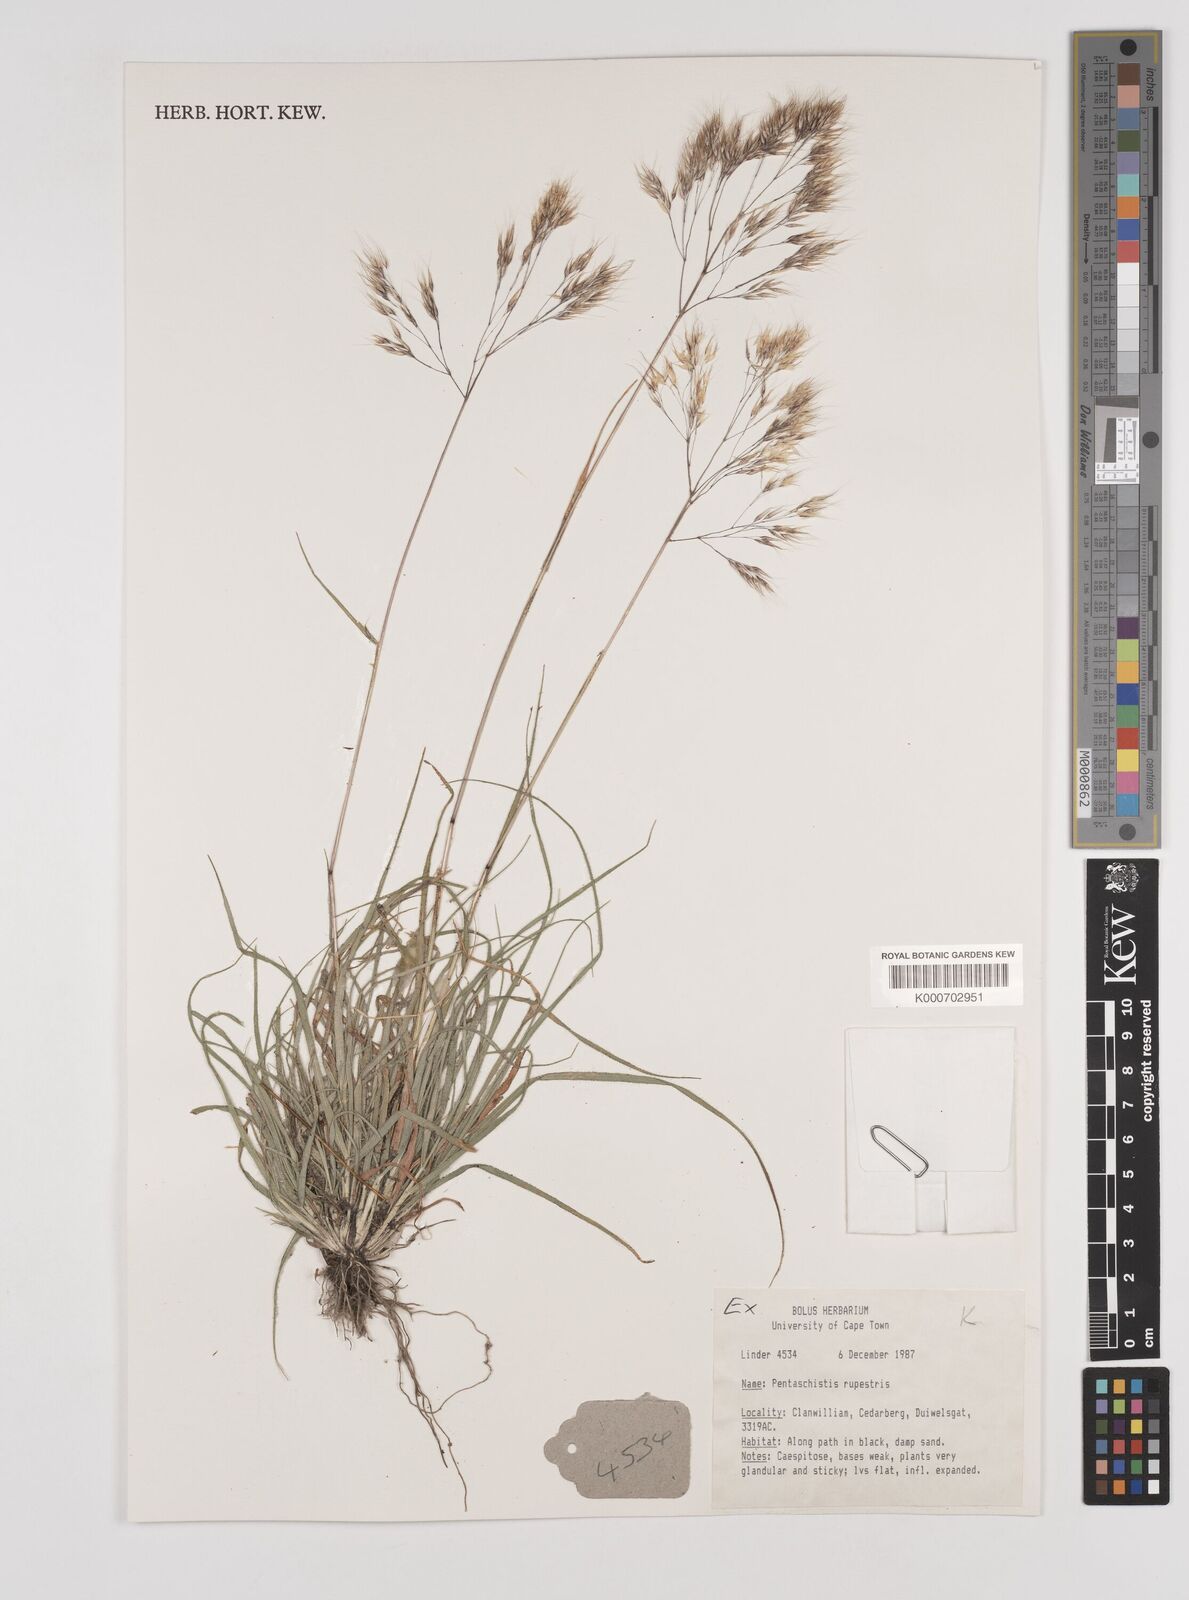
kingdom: Plantae
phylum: Tracheophyta
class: Liliopsida
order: Poales
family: Poaceae
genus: Pentameris
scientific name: Pentameris rupestris
